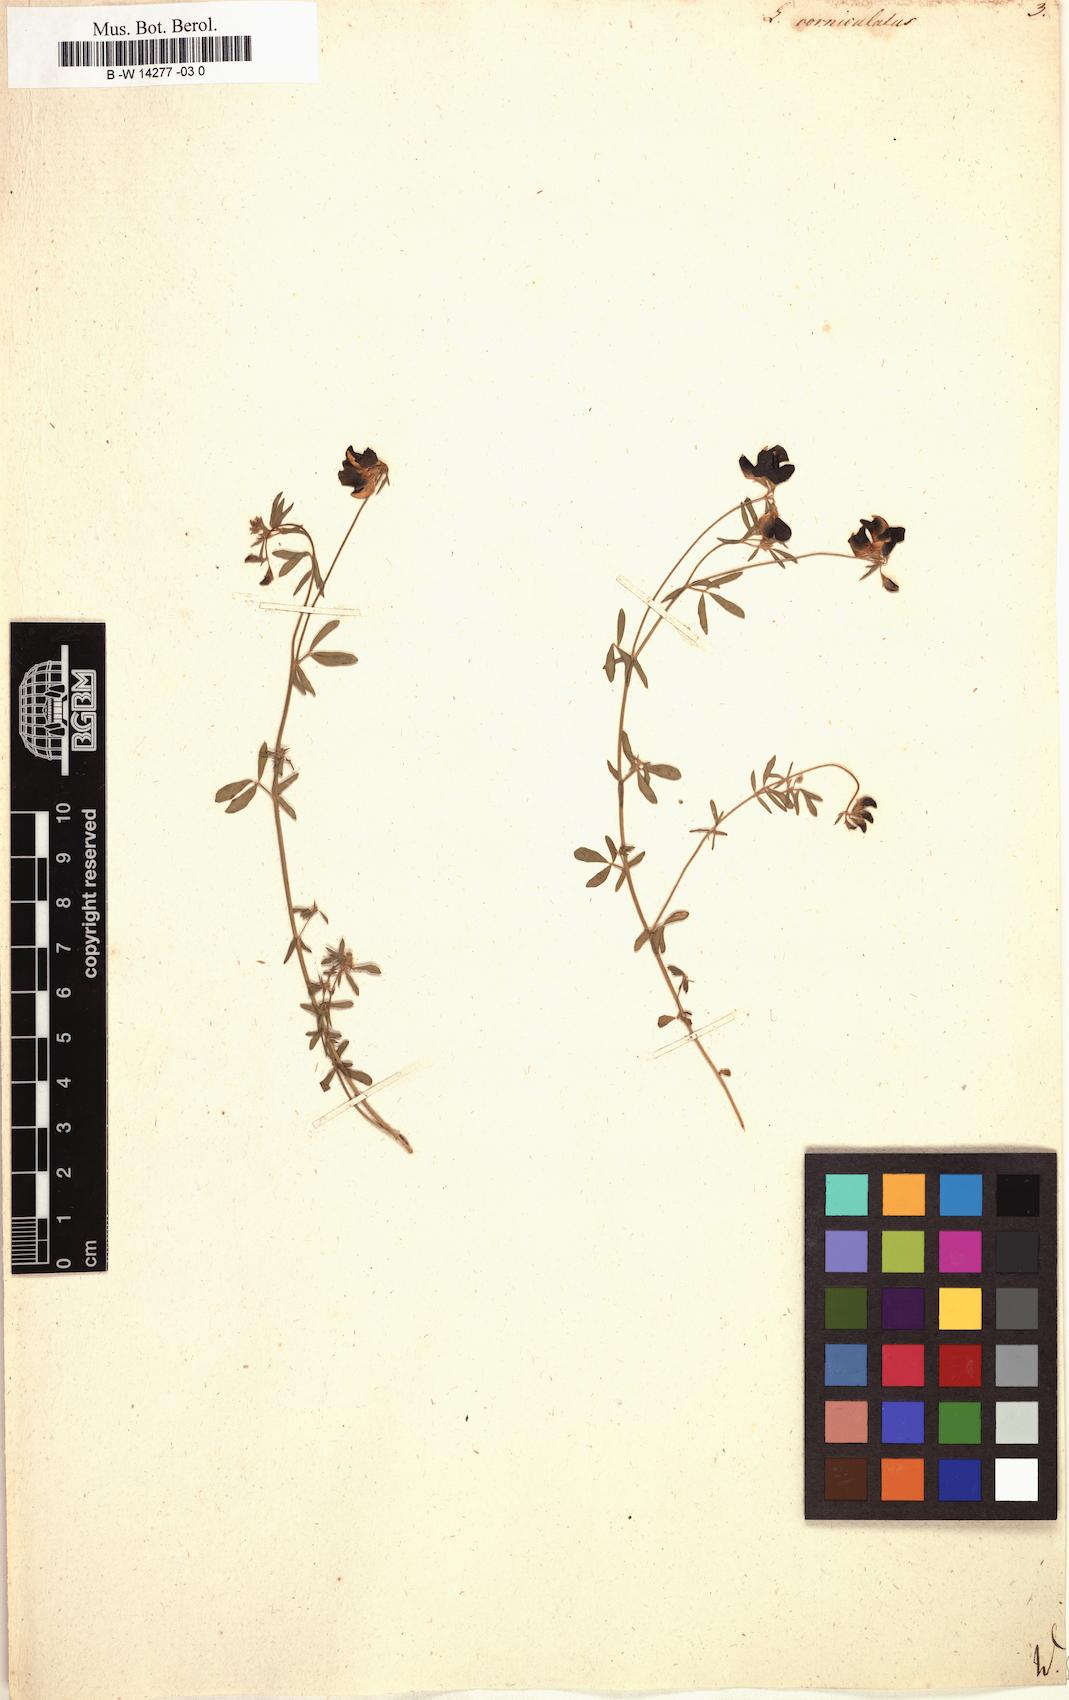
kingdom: Plantae
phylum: Tracheophyta
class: Magnoliopsida
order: Fabales
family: Fabaceae
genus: Lotus
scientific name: Lotus corniculatus
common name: Common bird's-foot-trefoil
